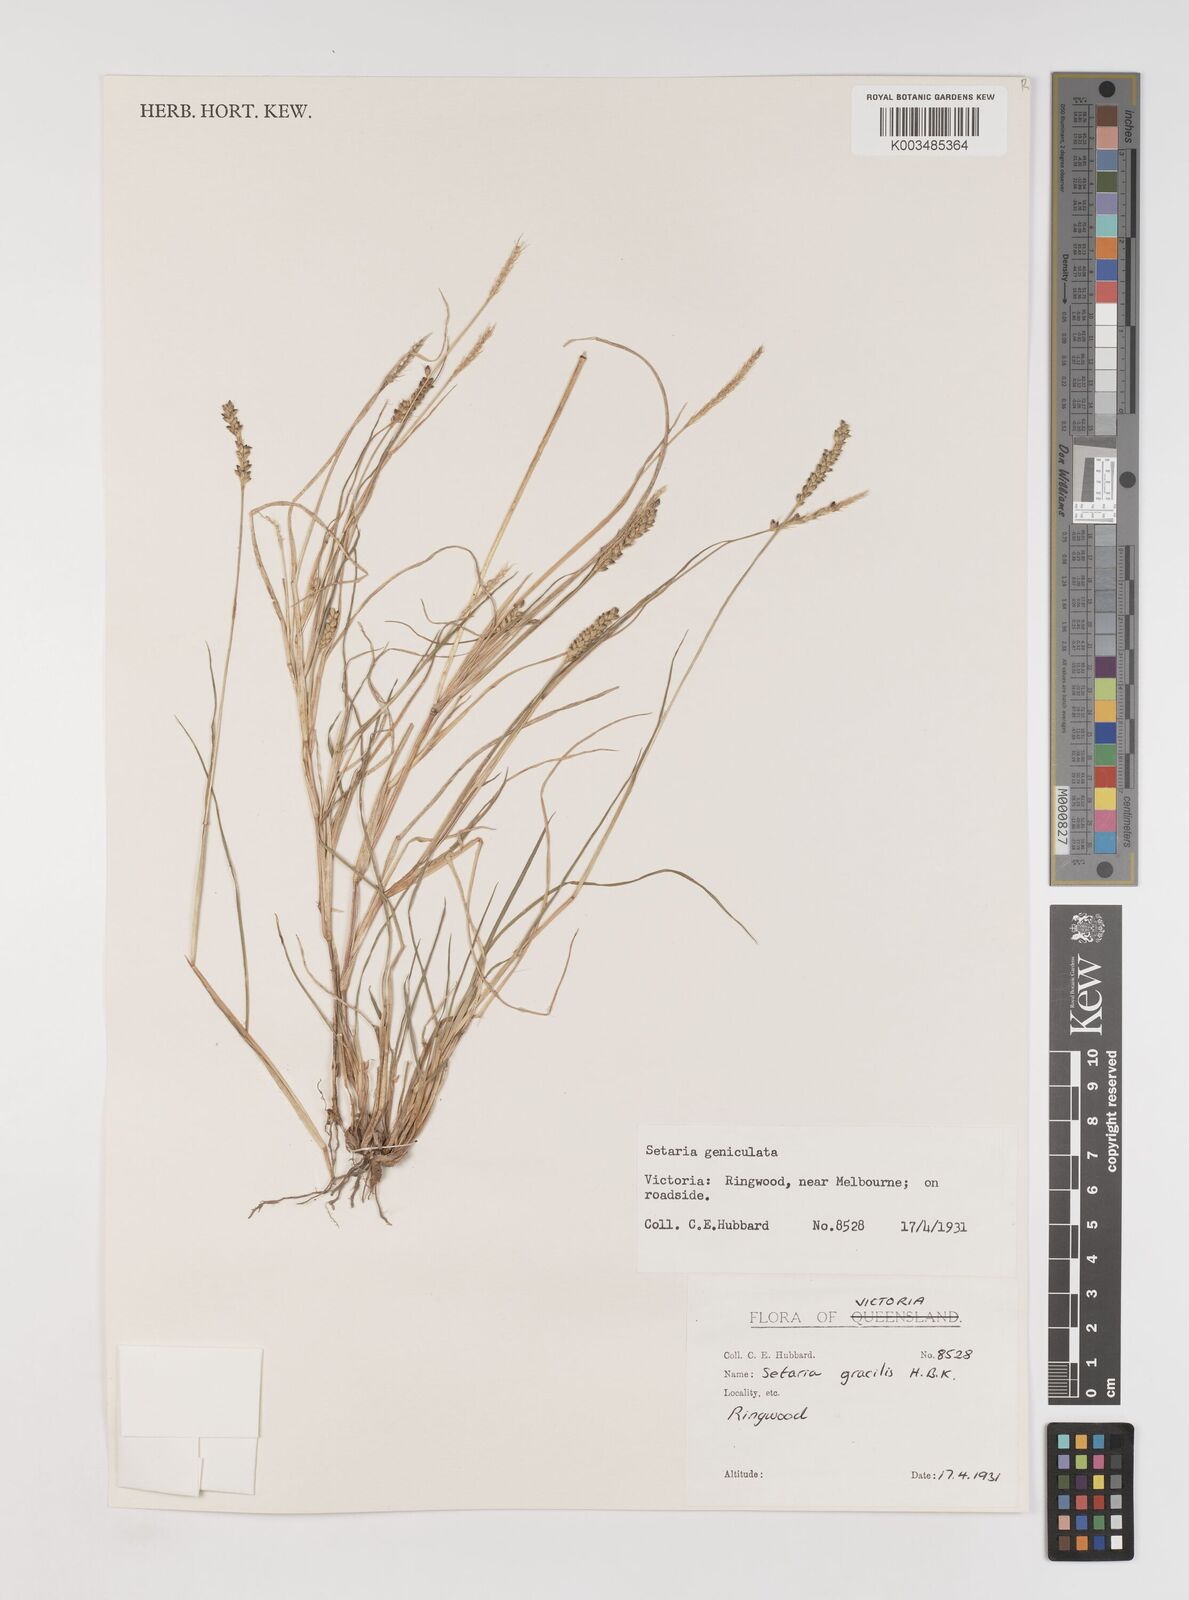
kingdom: Plantae
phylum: Tracheophyta
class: Liliopsida
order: Poales
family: Poaceae
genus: Setaria
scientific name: Setaria parviflora
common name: Knotroot bristle-grass
